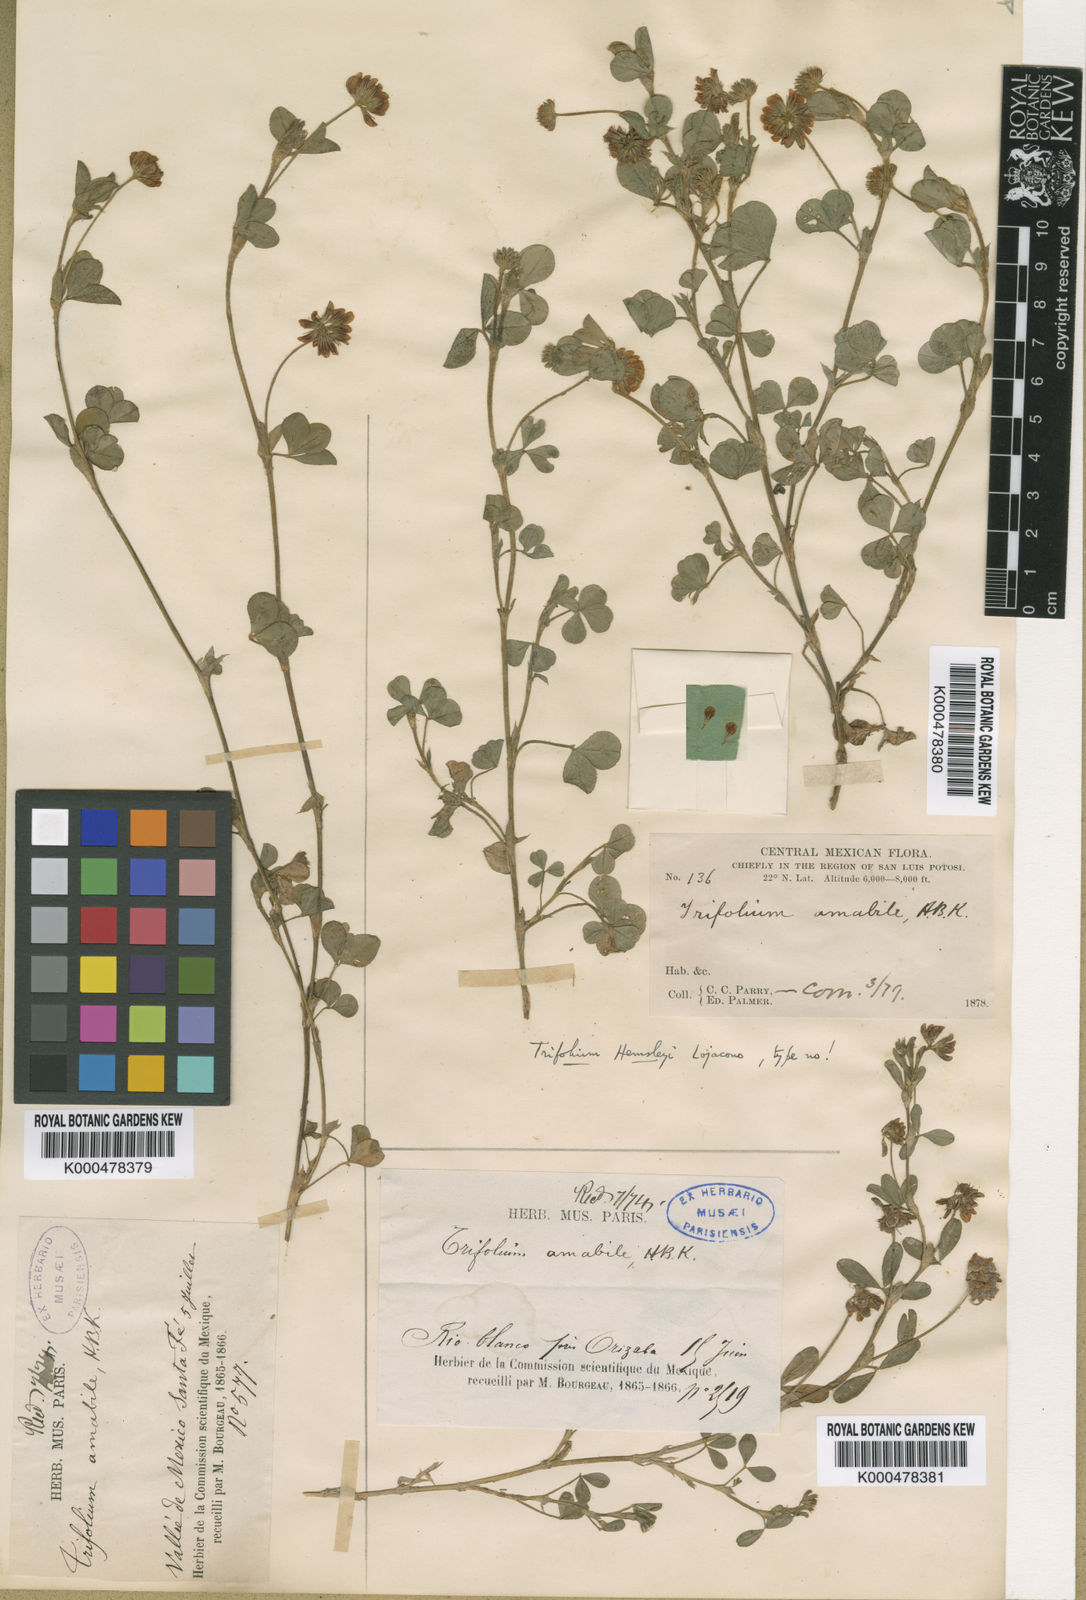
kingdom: Plantae
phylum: Tracheophyta
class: Magnoliopsida
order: Fabales
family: Fabaceae
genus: Trifolium
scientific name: Trifolium amabile
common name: Aztec clover
